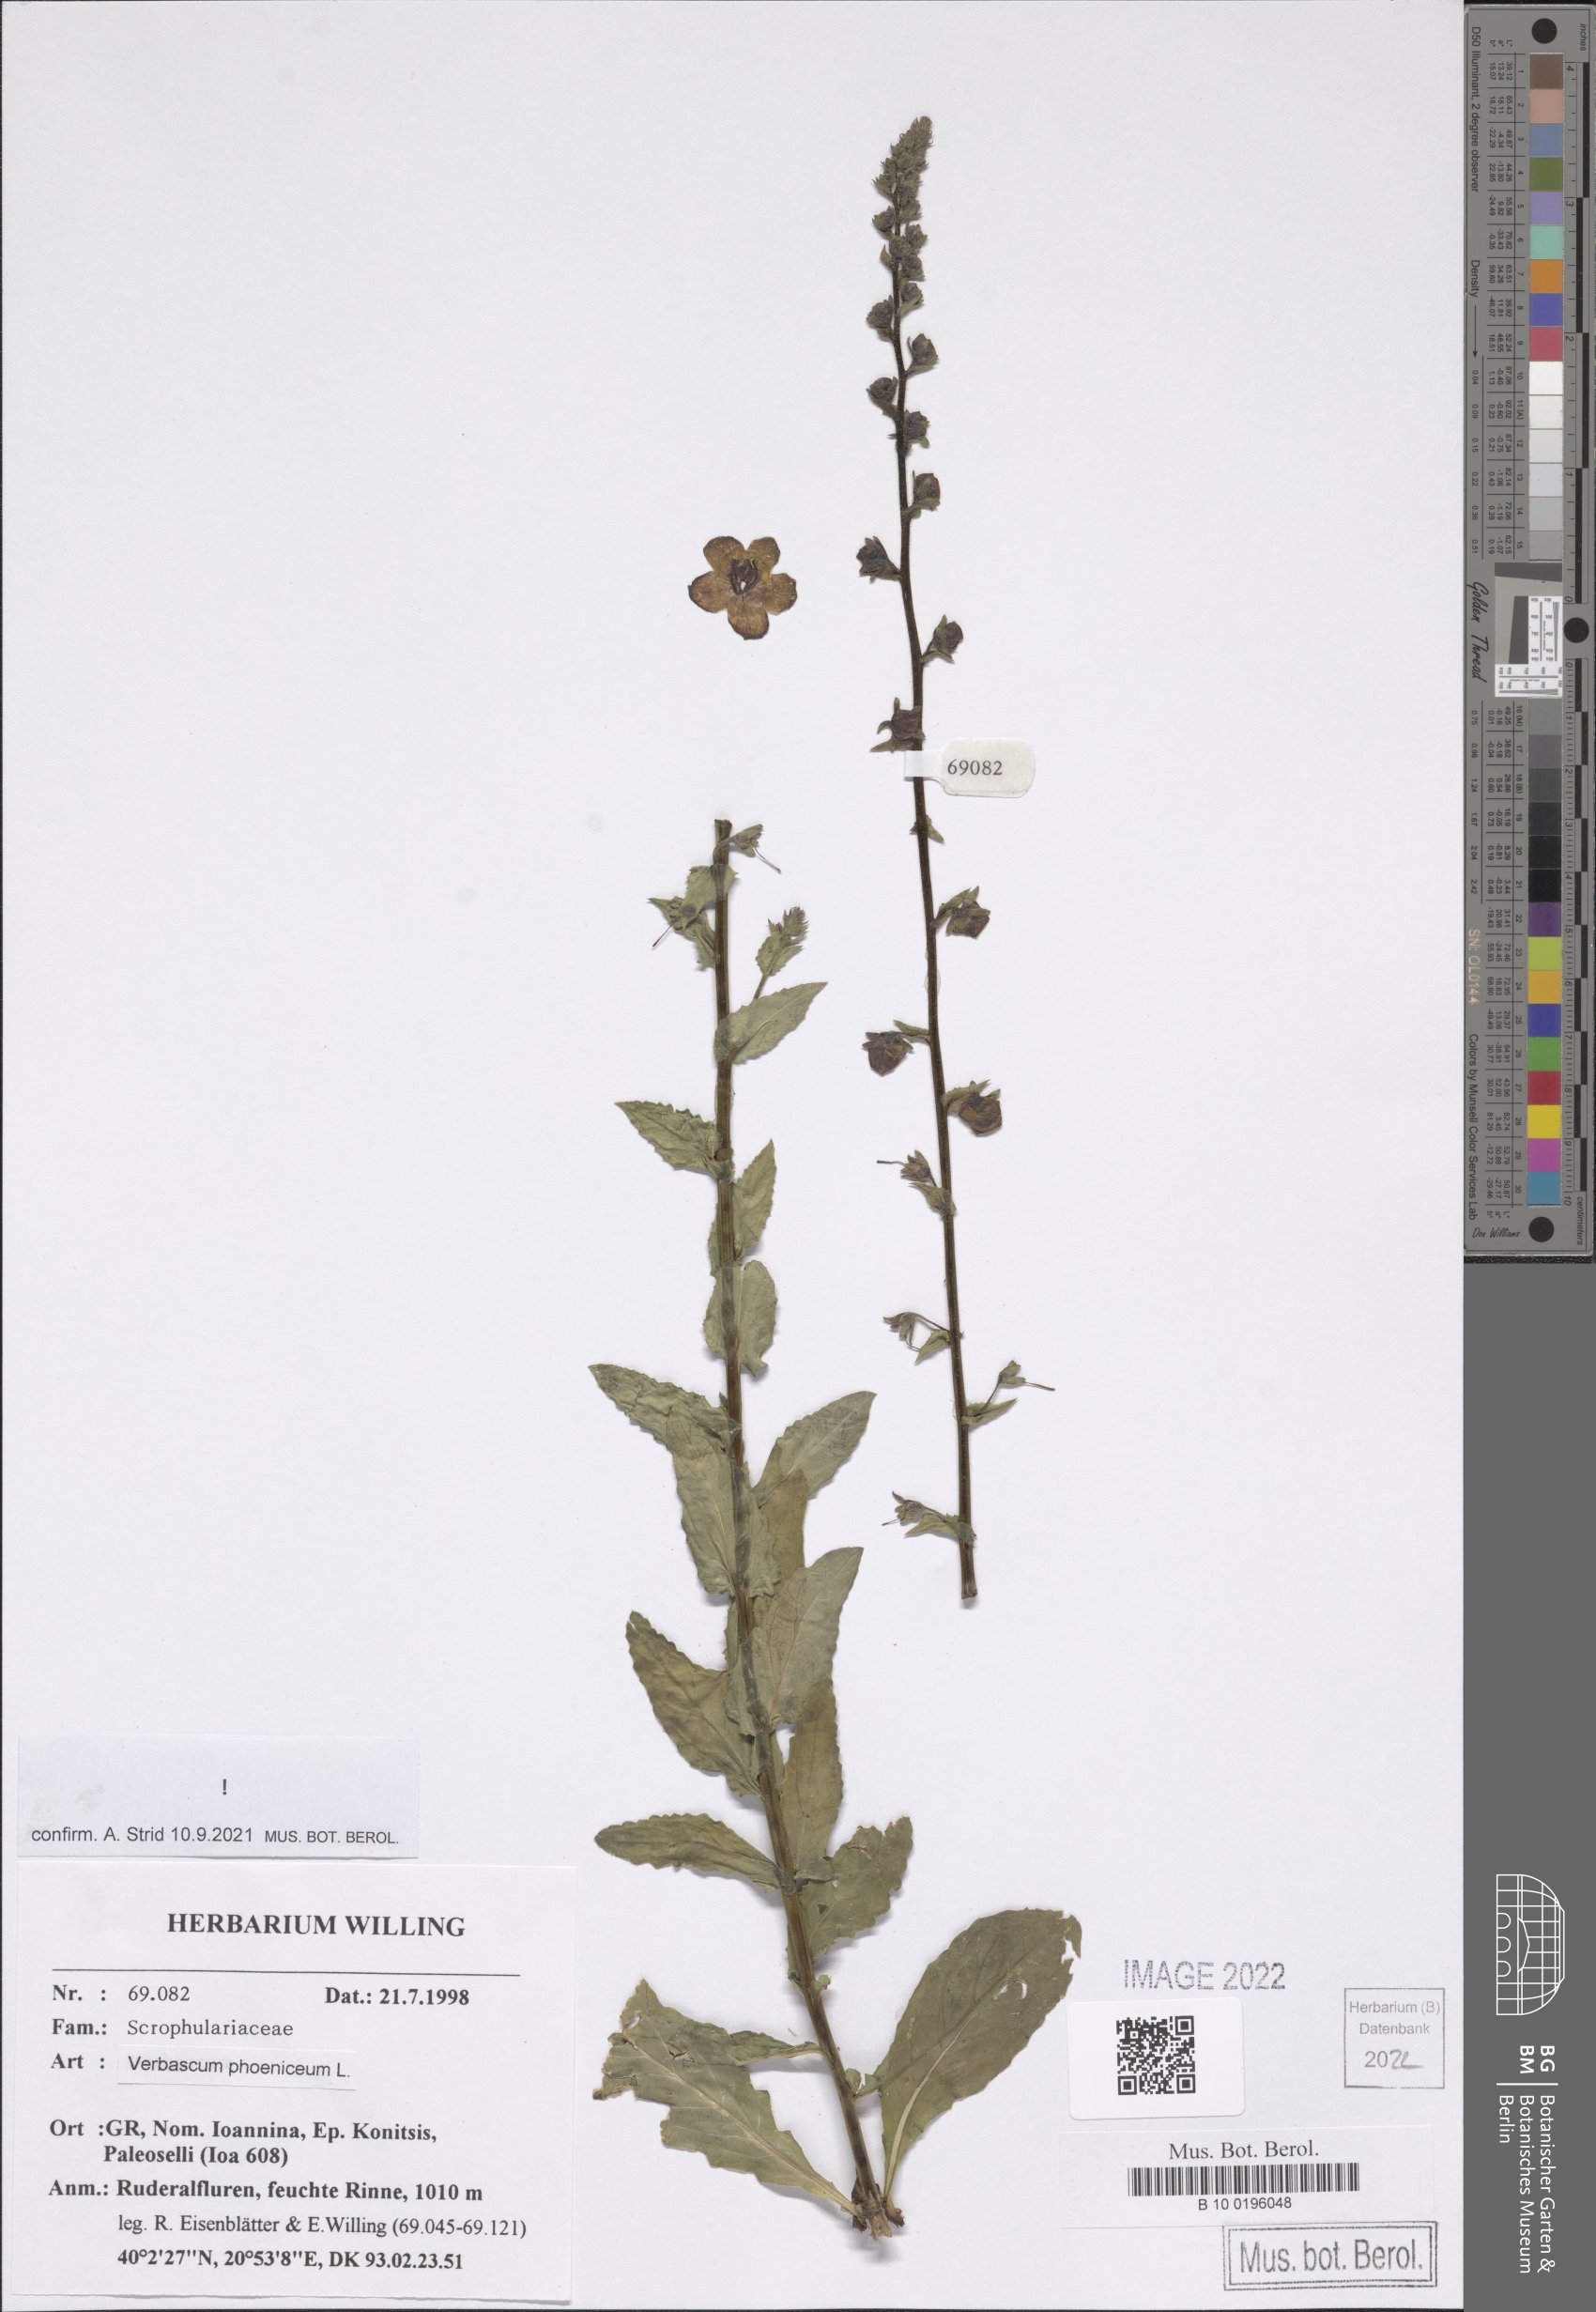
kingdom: Plantae
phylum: Tracheophyta
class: Magnoliopsida
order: Lamiales
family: Scrophulariaceae
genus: Verbascum
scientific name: Verbascum phoeniceum
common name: Purple mullein
